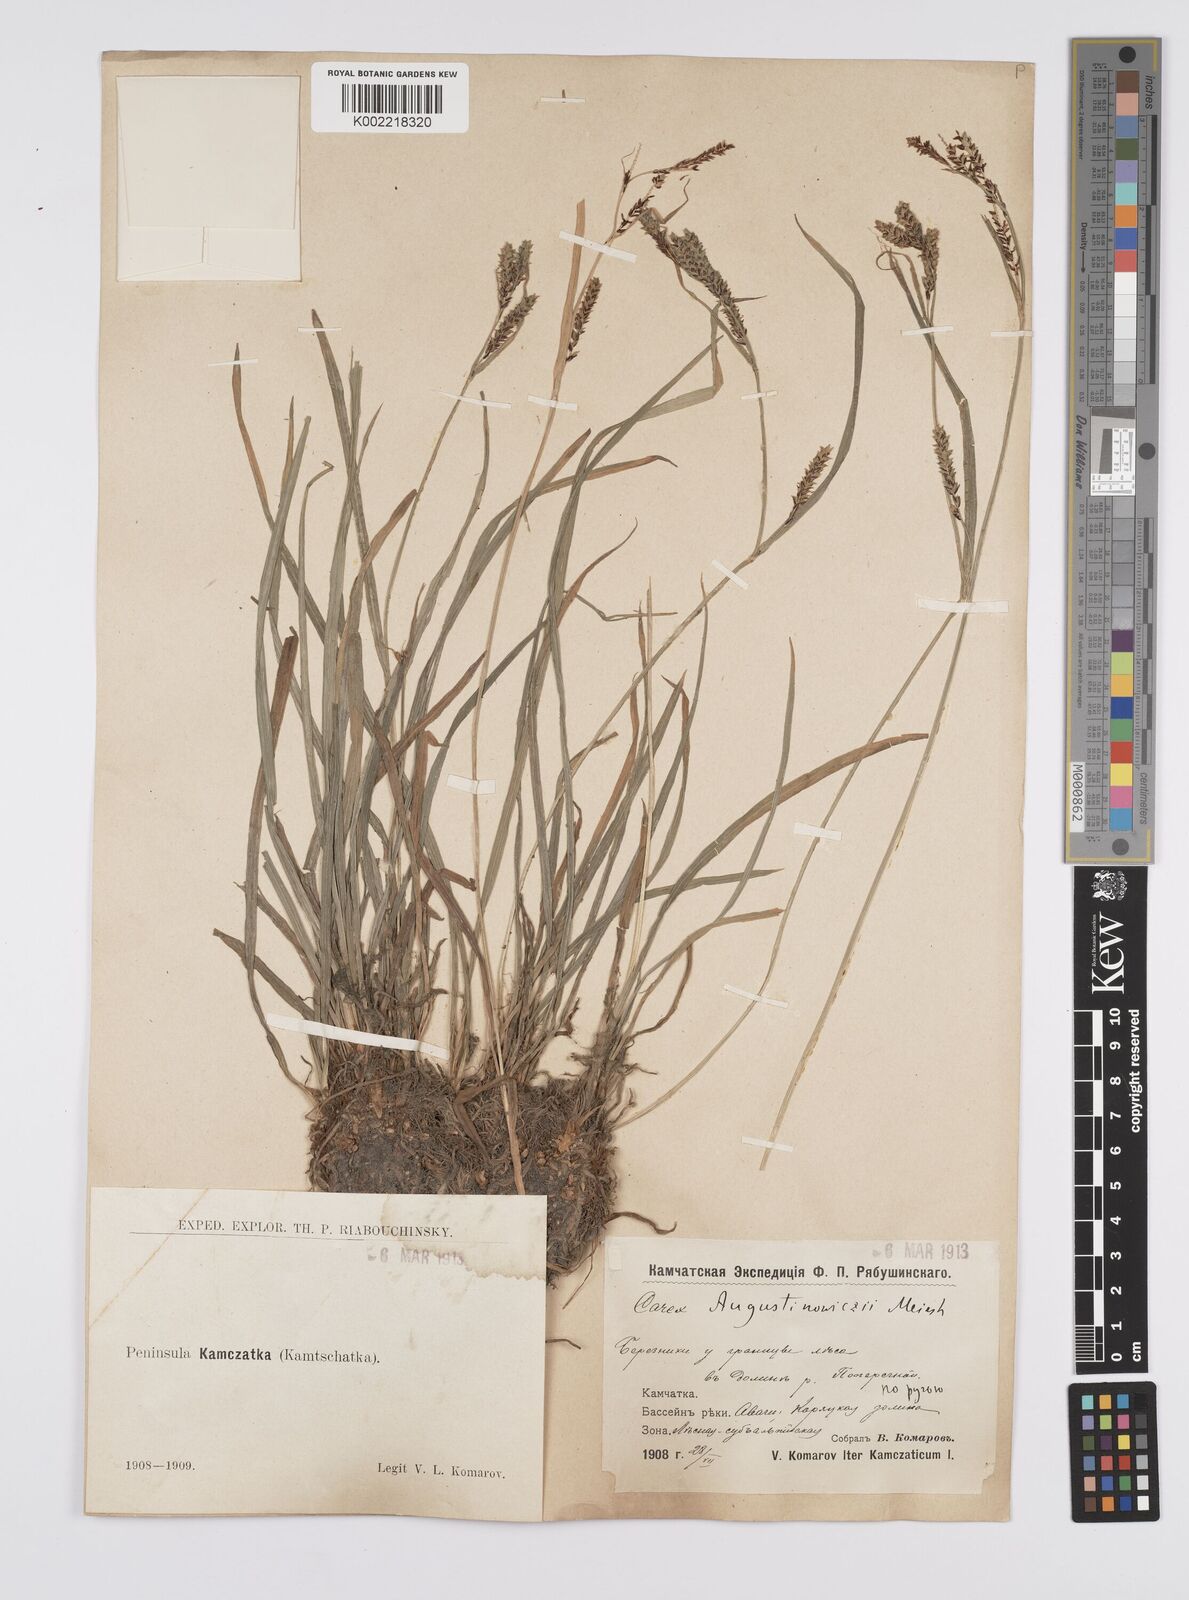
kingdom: Plantae
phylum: Tracheophyta
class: Liliopsida
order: Poales
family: Cyperaceae
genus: Carex
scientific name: Carex augustinowiczii
